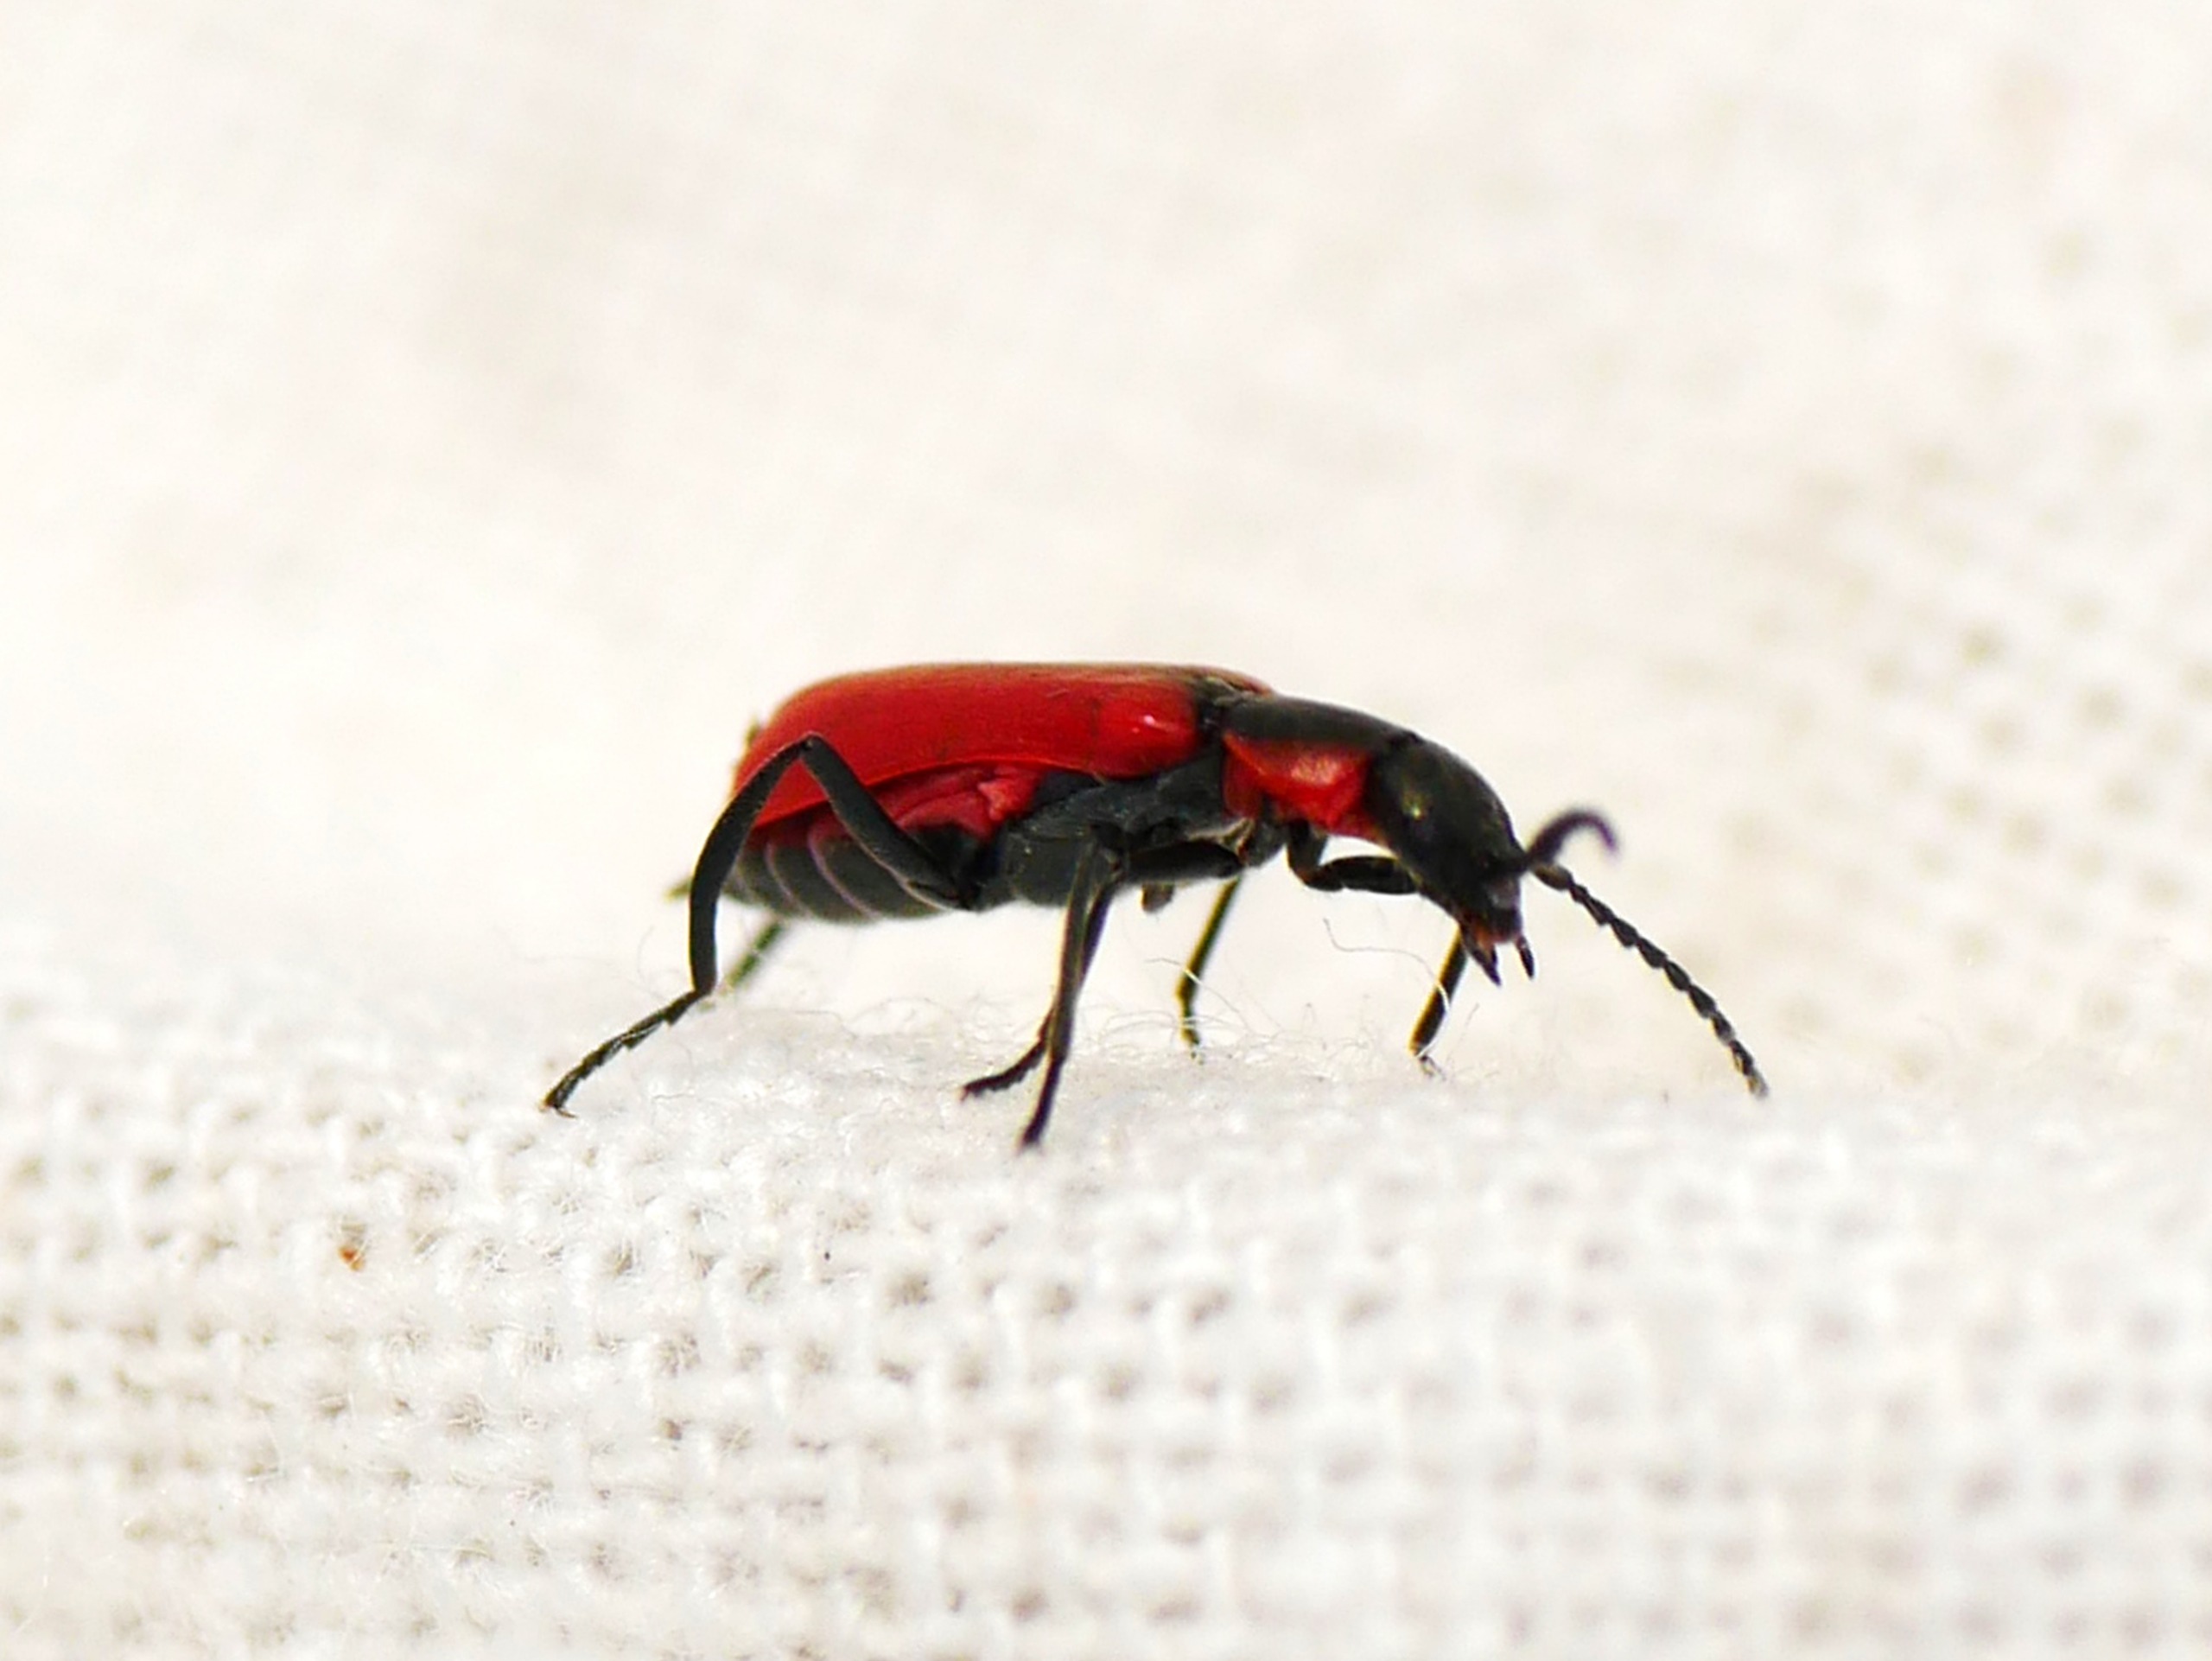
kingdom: Animalia
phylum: Arthropoda
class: Insecta
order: Coleoptera
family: Melyridae
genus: Anthocomus
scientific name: Anthocomus rufus
